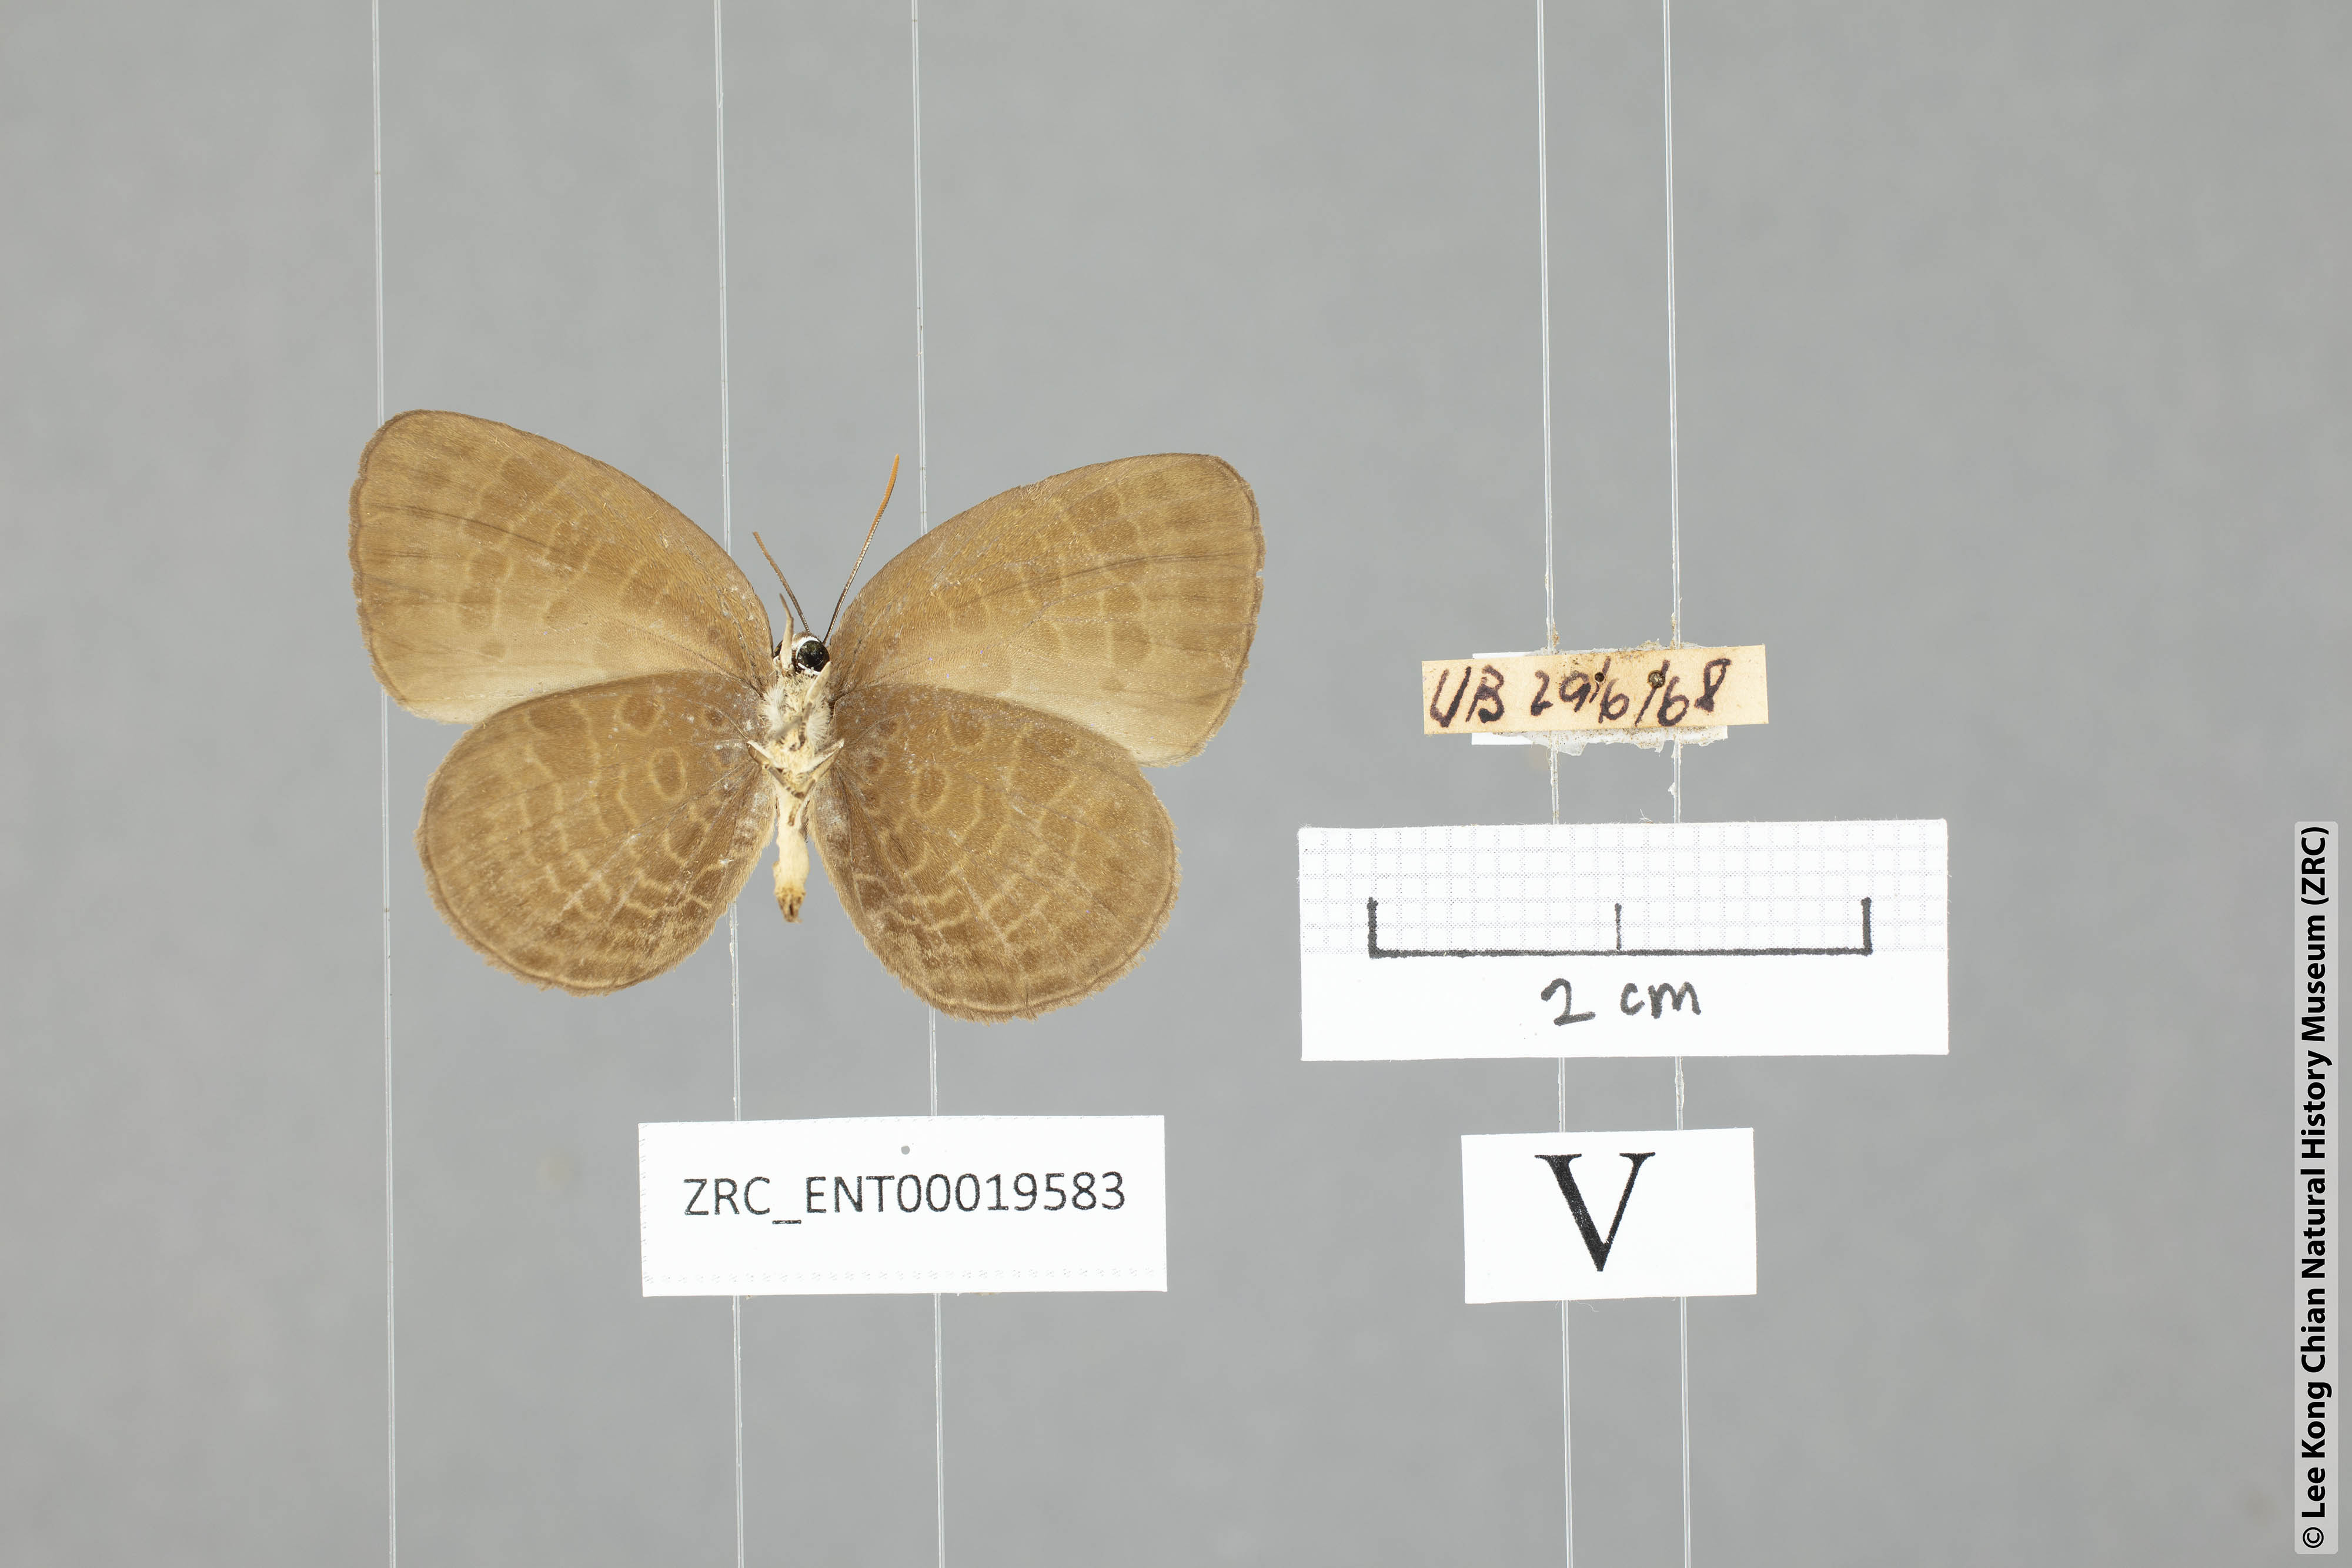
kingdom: Animalia
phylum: Arthropoda
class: Insecta
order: Lepidoptera
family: Lycaenidae
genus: Arhopala
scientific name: Arhopala inornata
